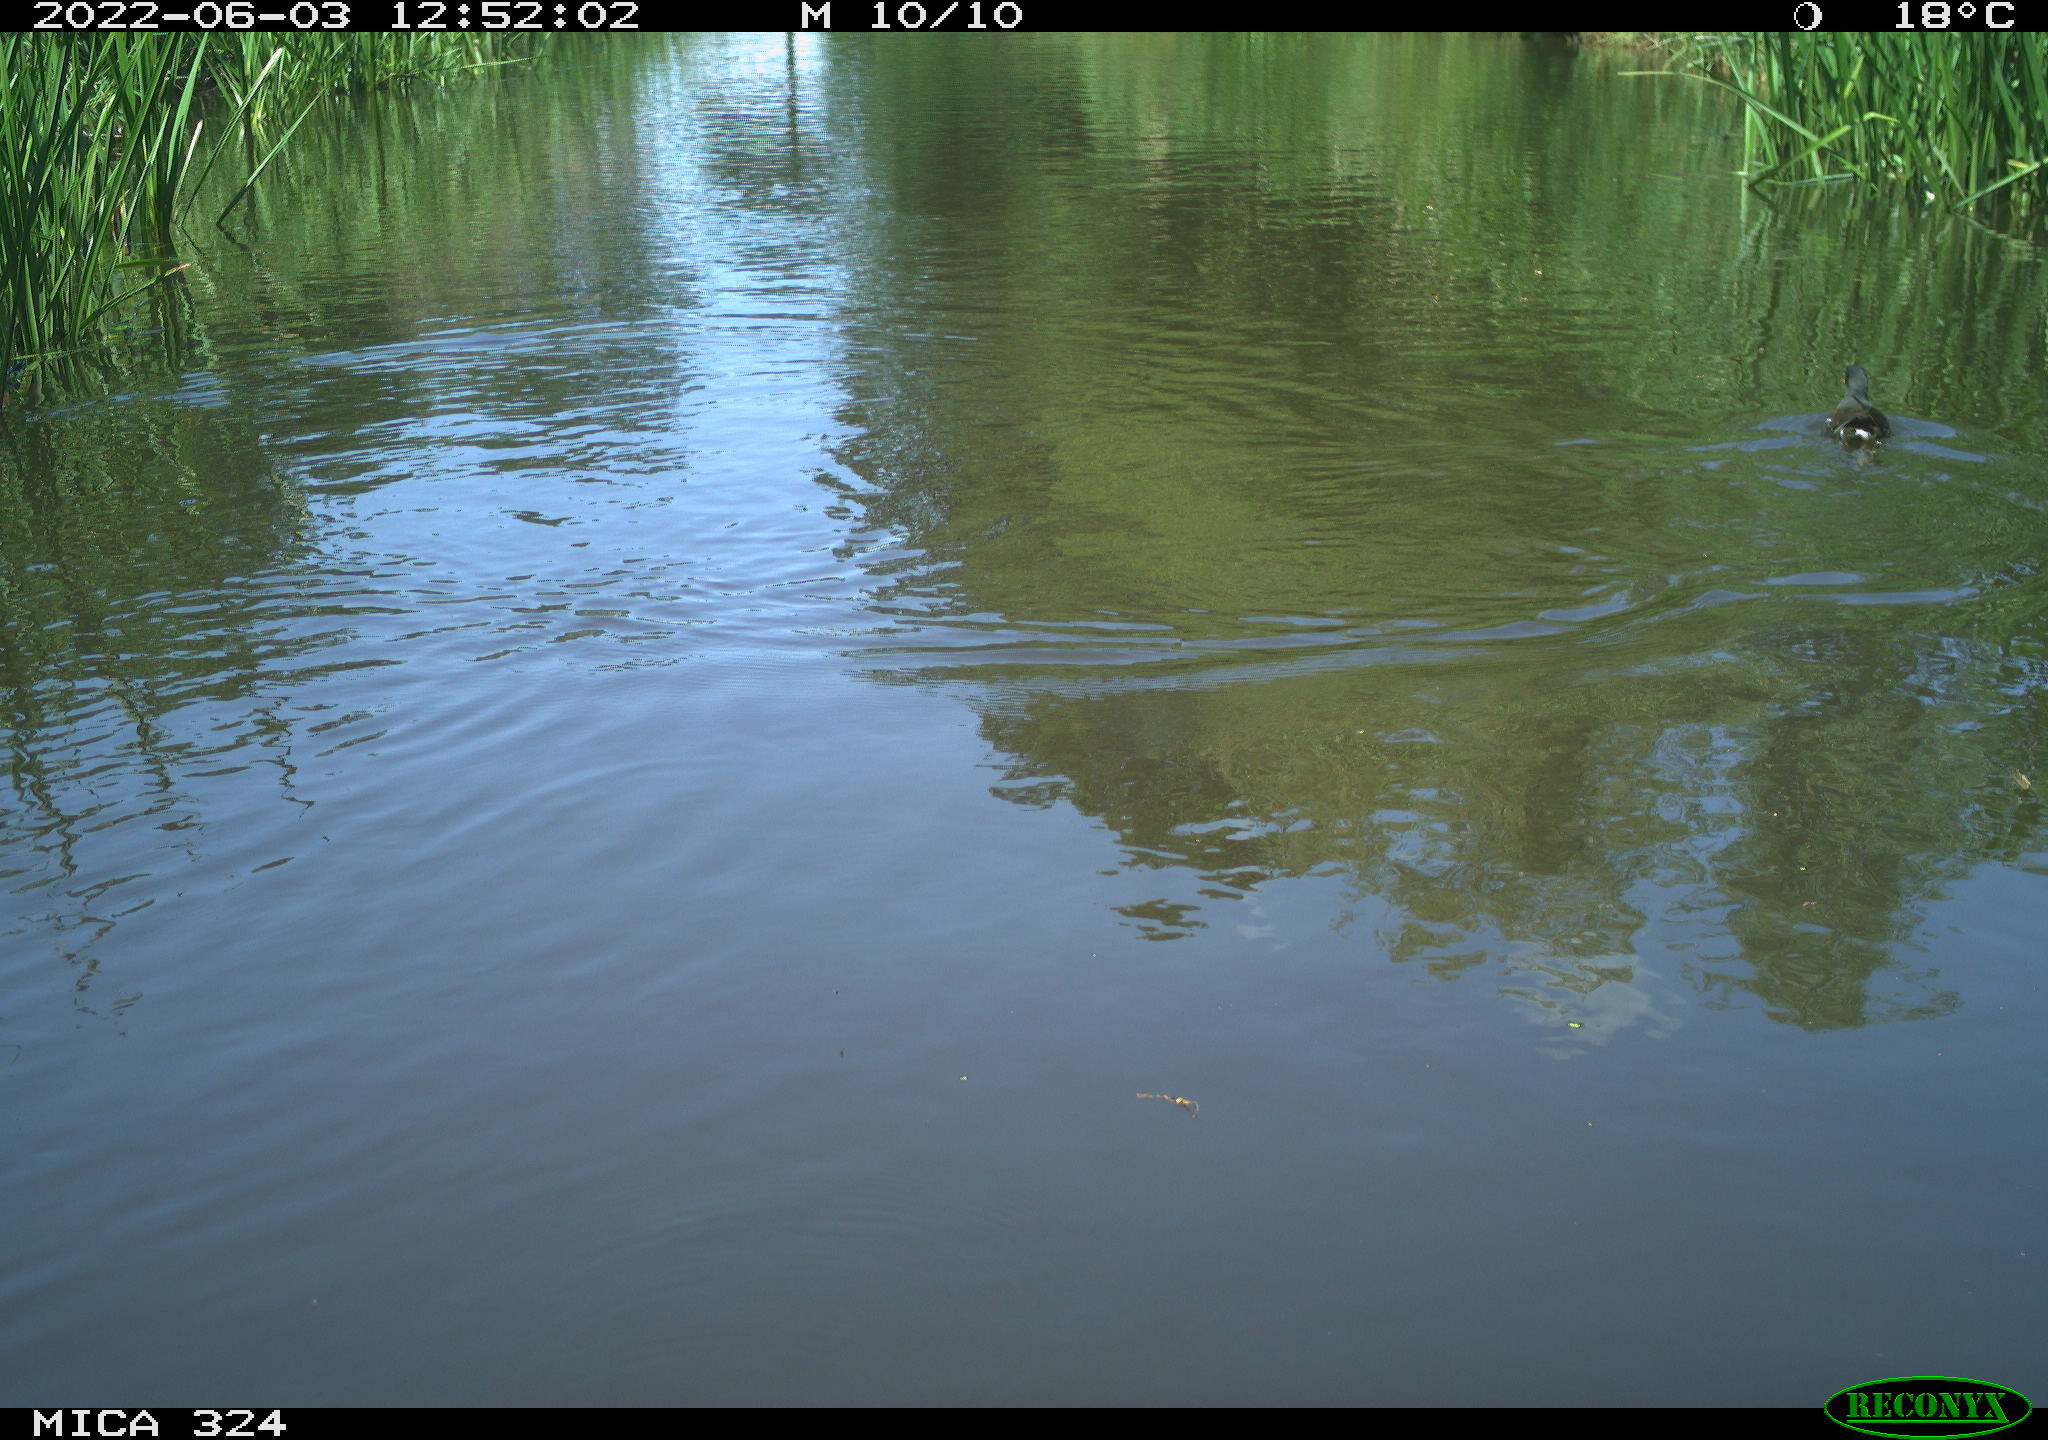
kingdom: Animalia
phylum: Chordata
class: Aves
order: Gruiformes
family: Rallidae
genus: Gallinula
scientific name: Gallinula chloropus
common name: Common moorhen
